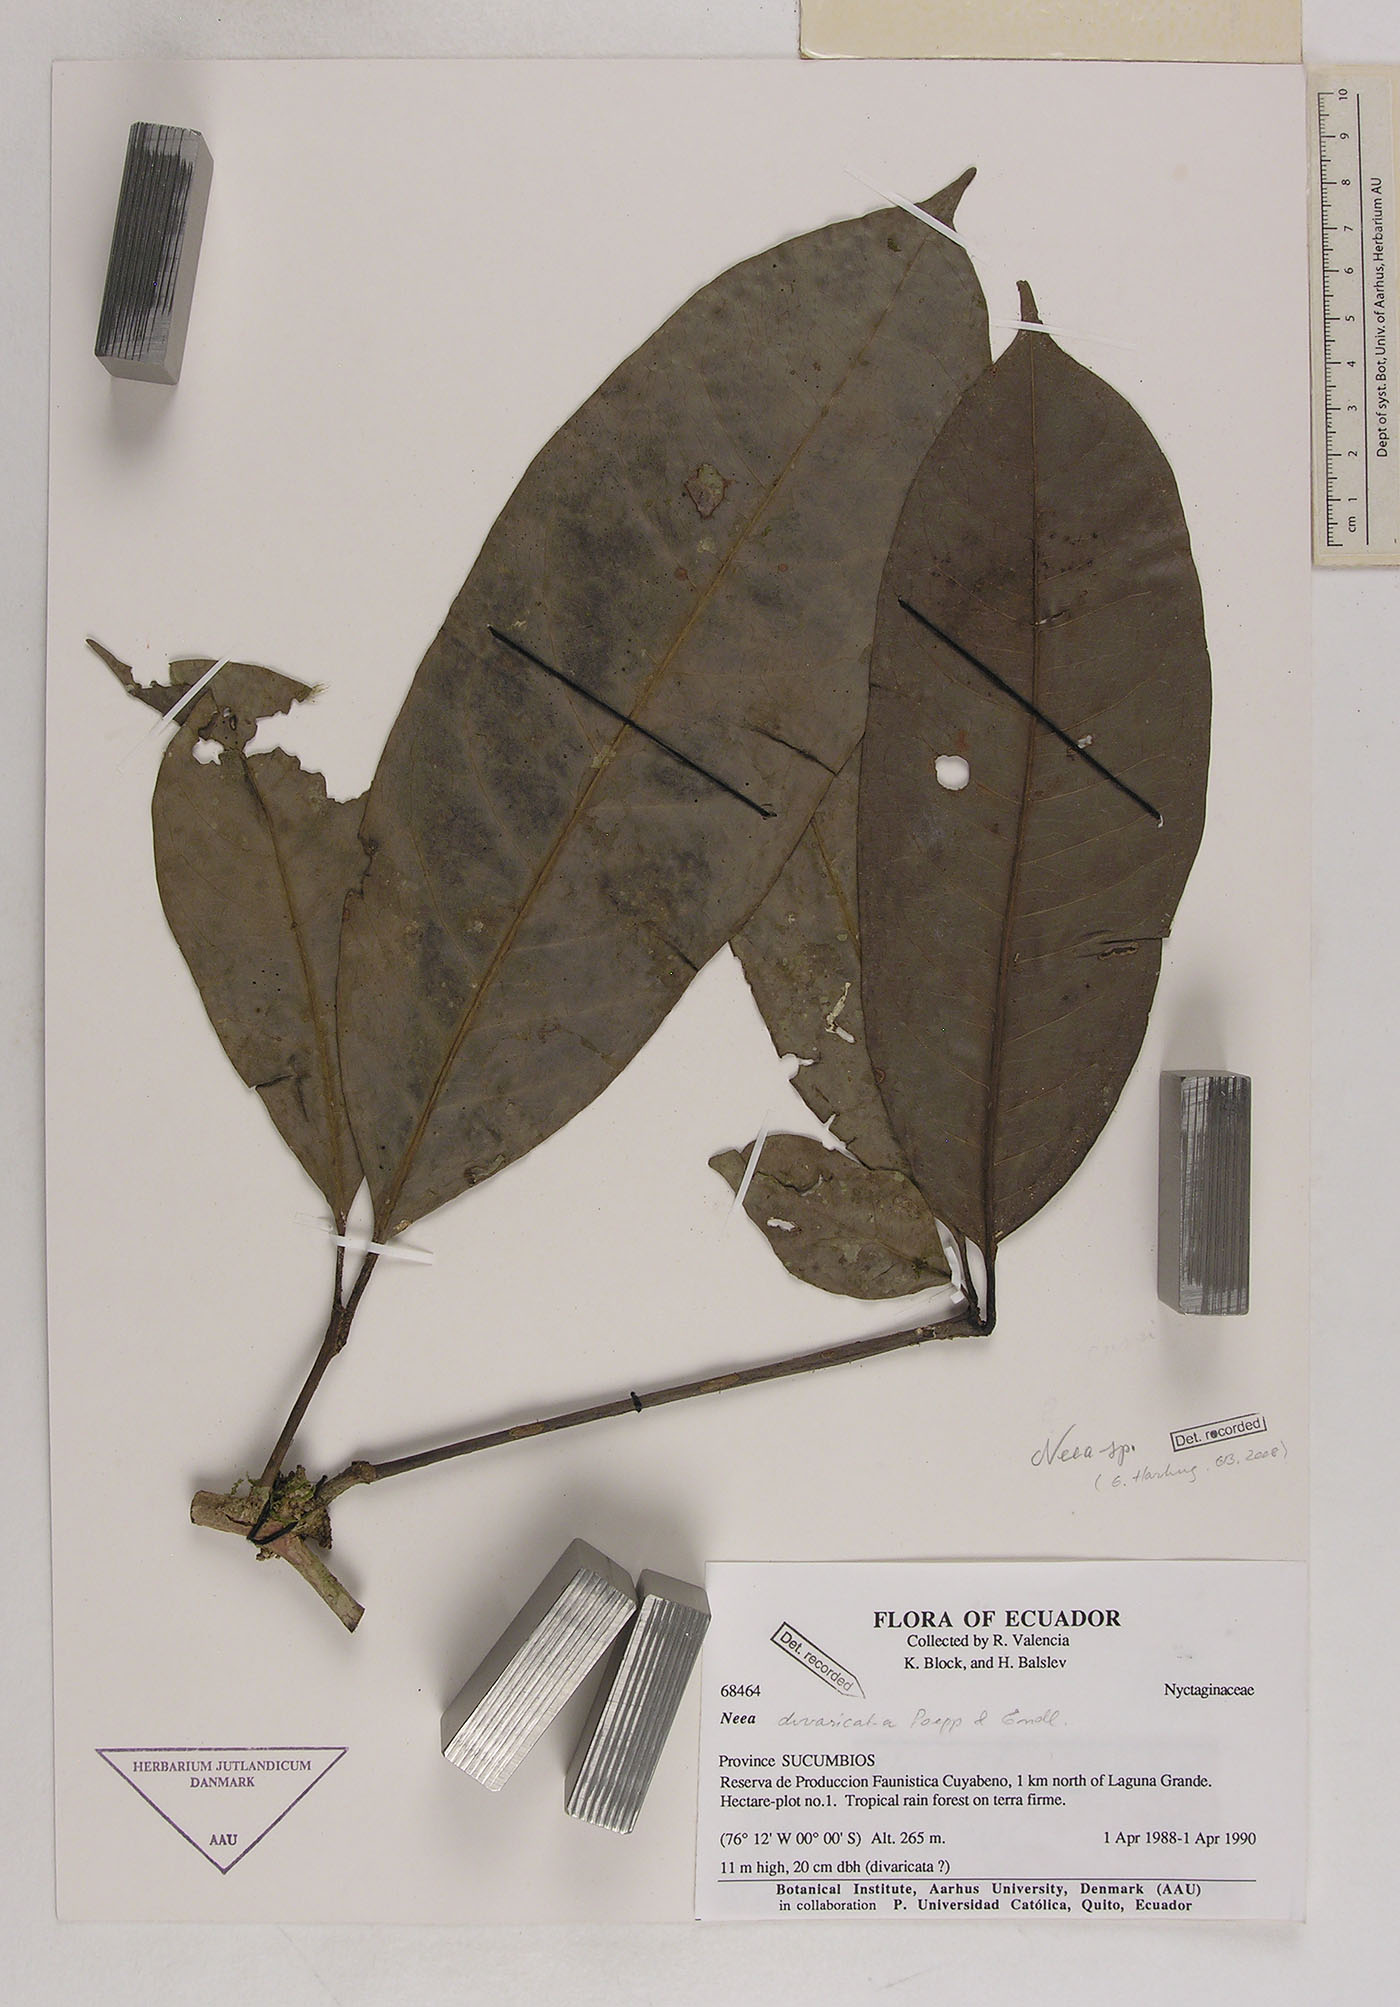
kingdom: Plantae
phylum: Tracheophyta
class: Magnoliopsida
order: Caryophyllales
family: Nyctaginaceae
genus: Neea
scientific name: Neea
